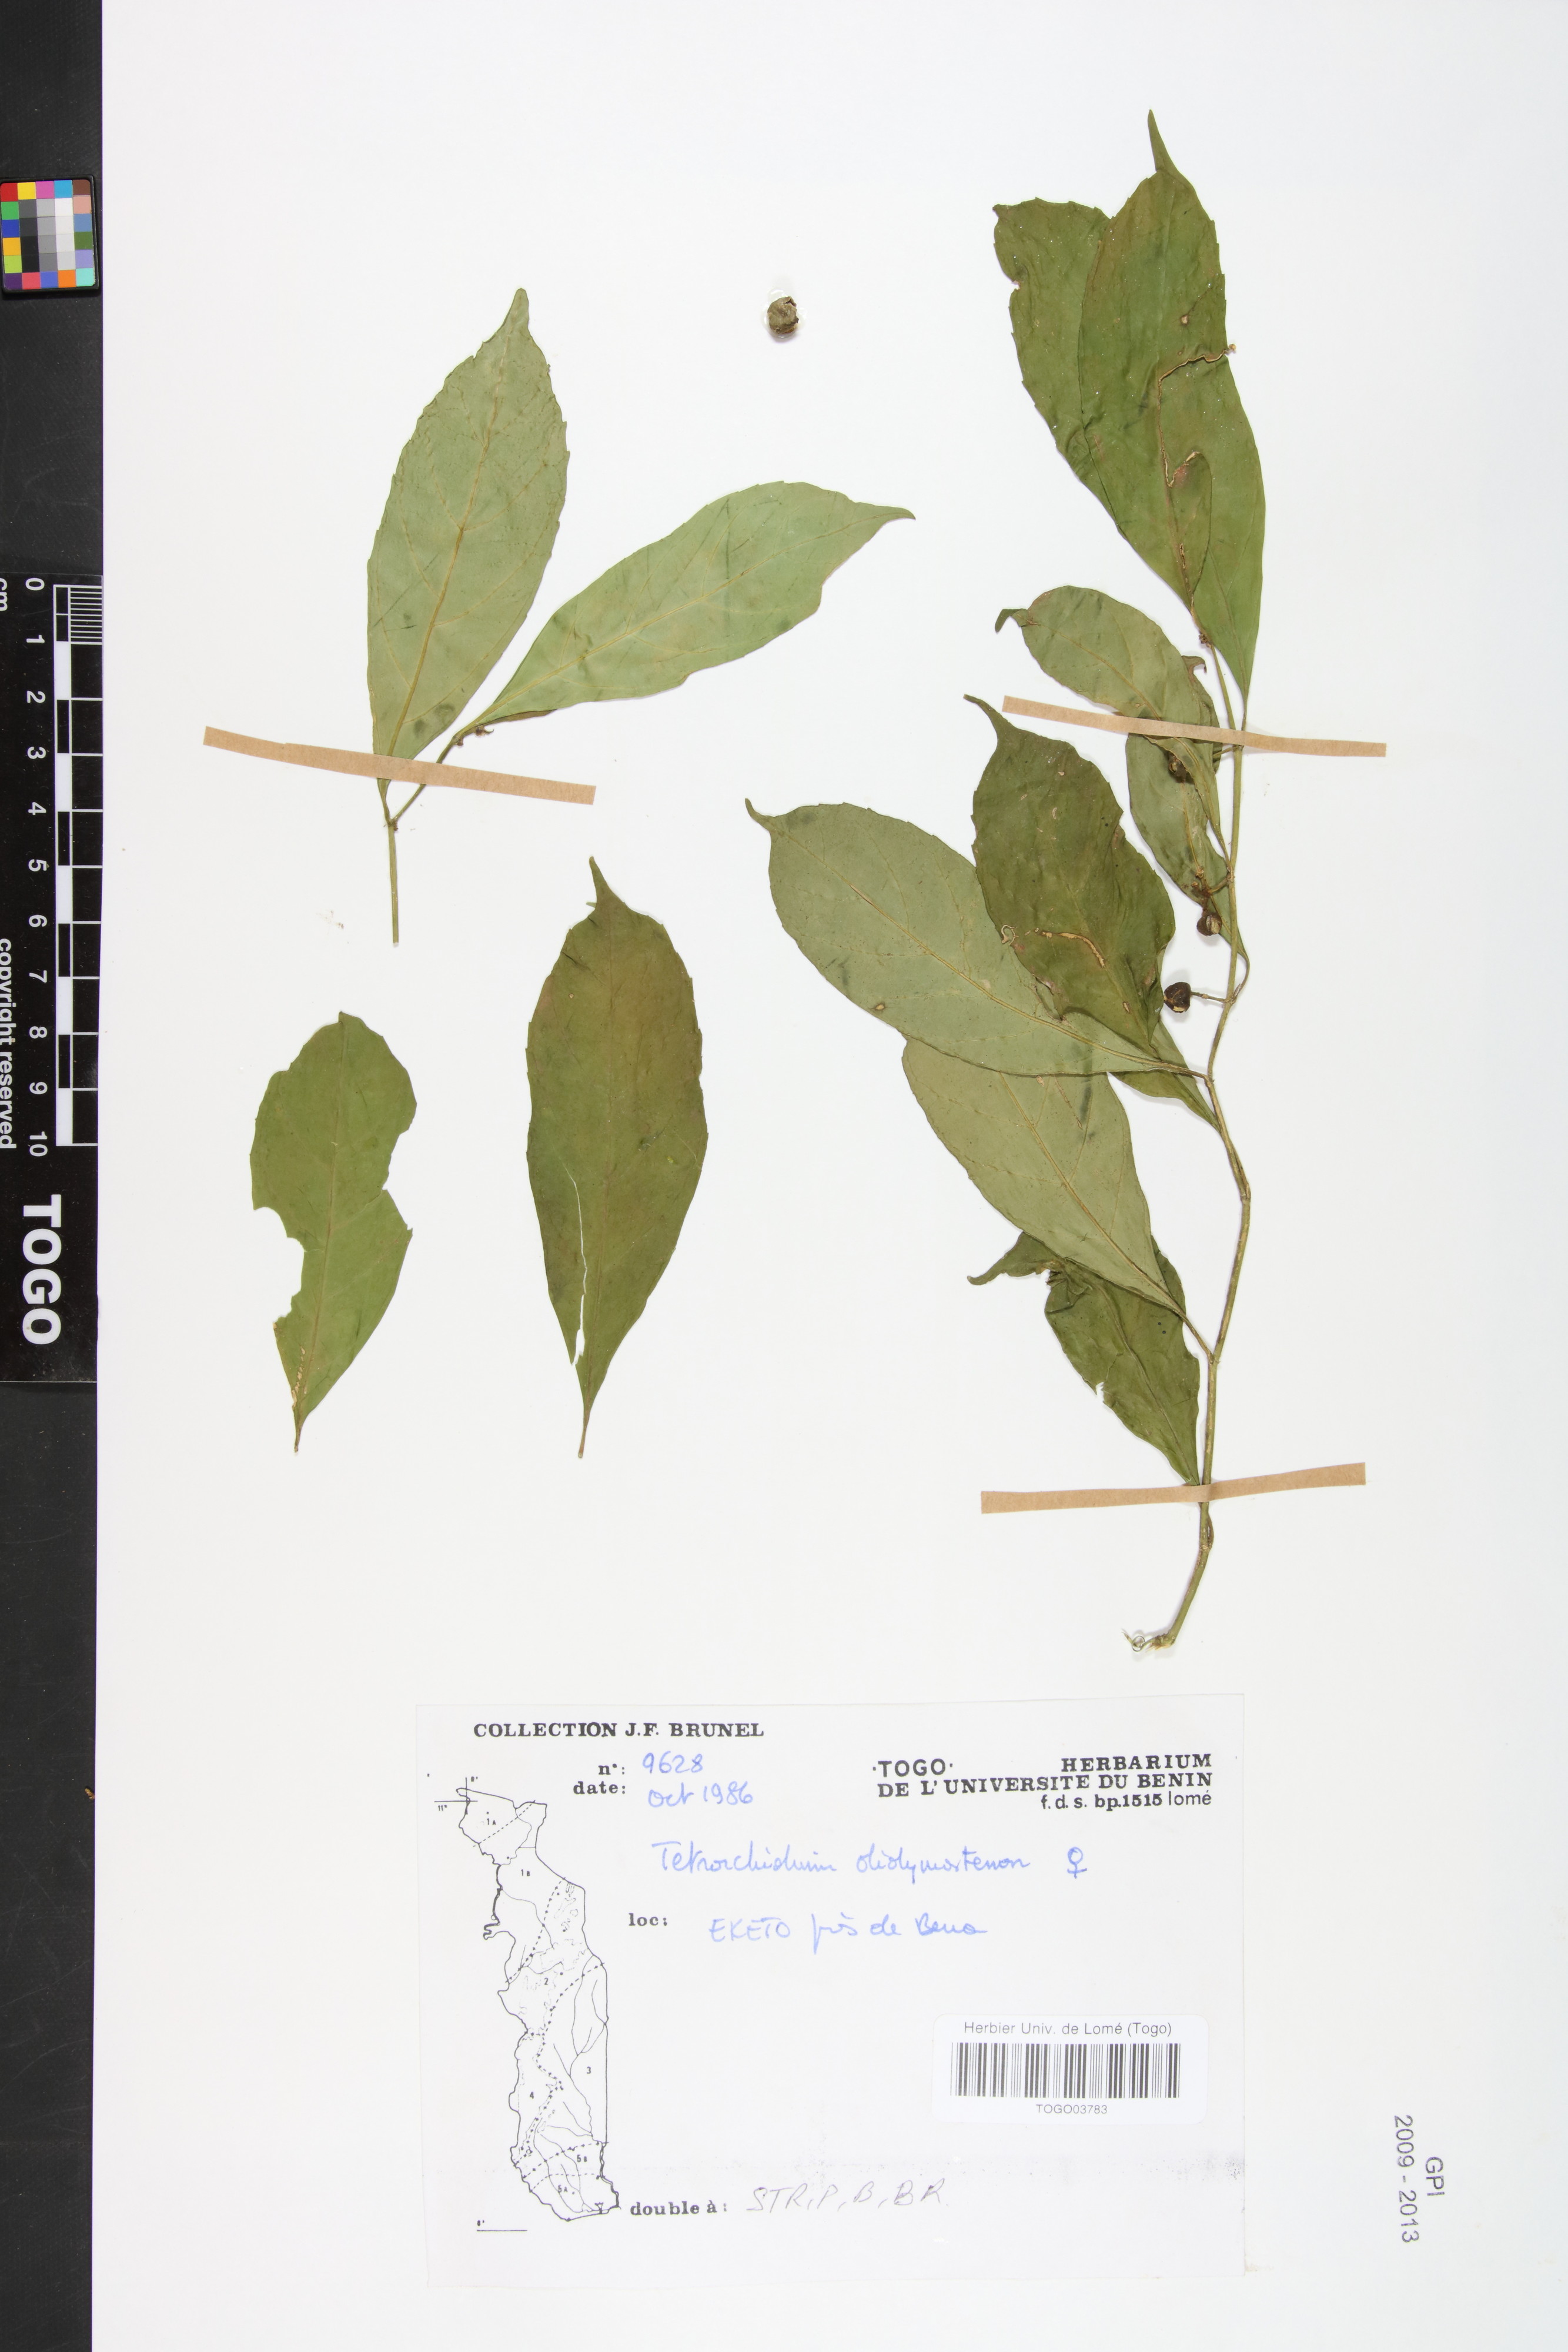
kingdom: Plantae
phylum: Tracheophyta
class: Magnoliopsida
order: Malpighiales
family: Euphorbiaceae
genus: Tetrorchidium
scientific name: Tetrorchidium didymostemon
